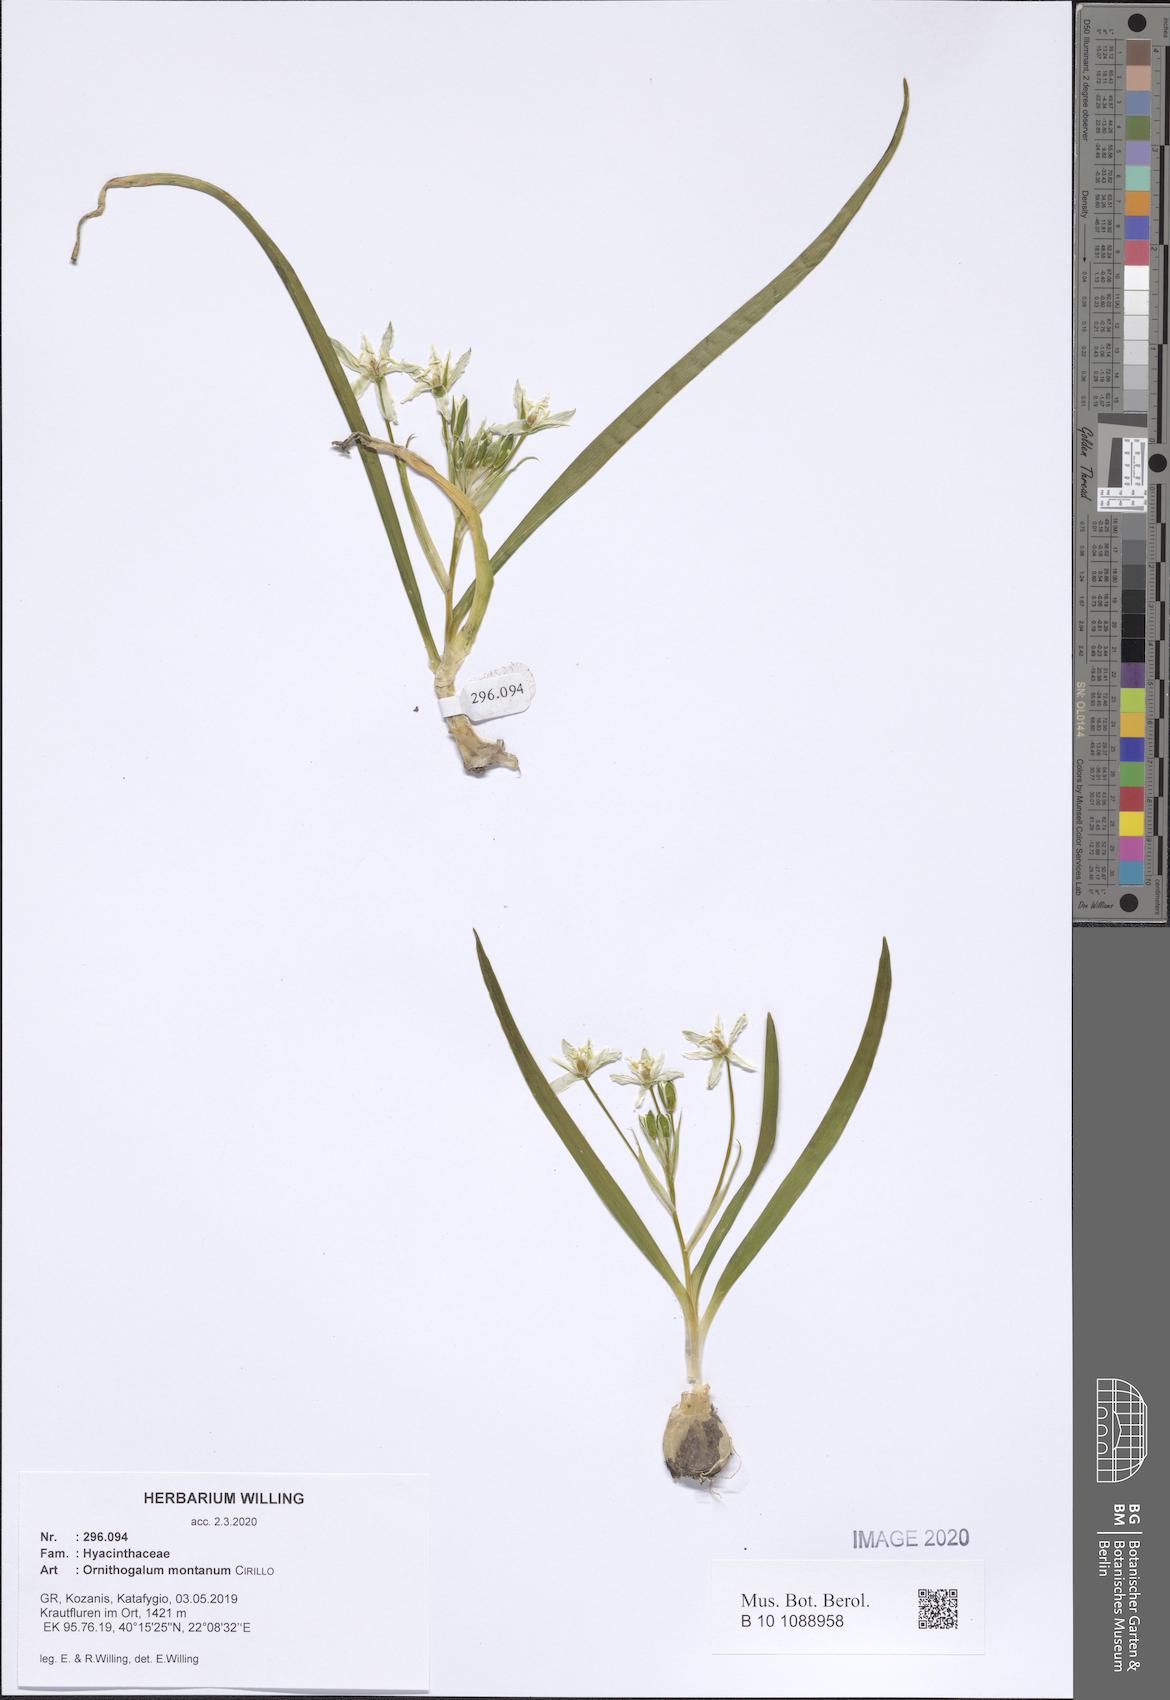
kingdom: Plantae
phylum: Tracheophyta
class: Liliopsida
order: Asparagales
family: Asparagaceae
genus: Ornithogalum
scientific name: Ornithogalum montanum
